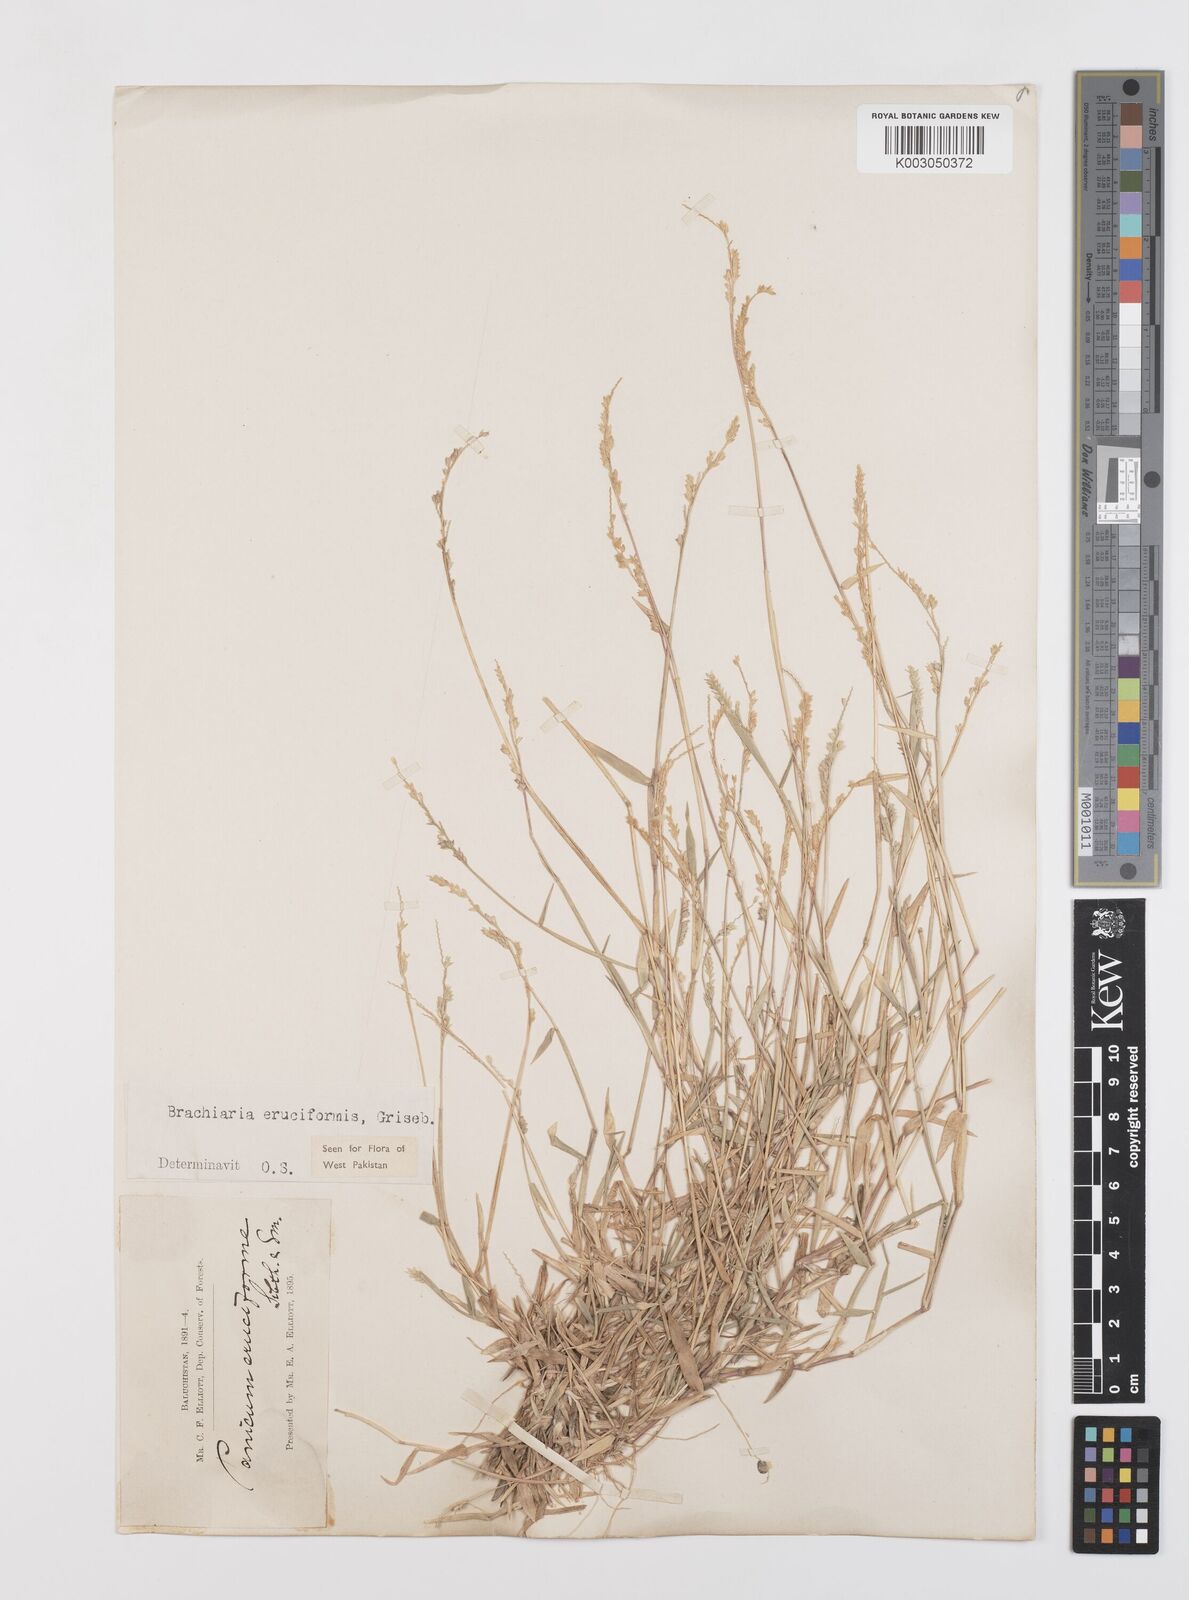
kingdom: Plantae
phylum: Tracheophyta
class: Liliopsida
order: Poales
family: Poaceae
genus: Moorochloa
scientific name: Moorochloa eruciformis
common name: Sweet signalgrass
